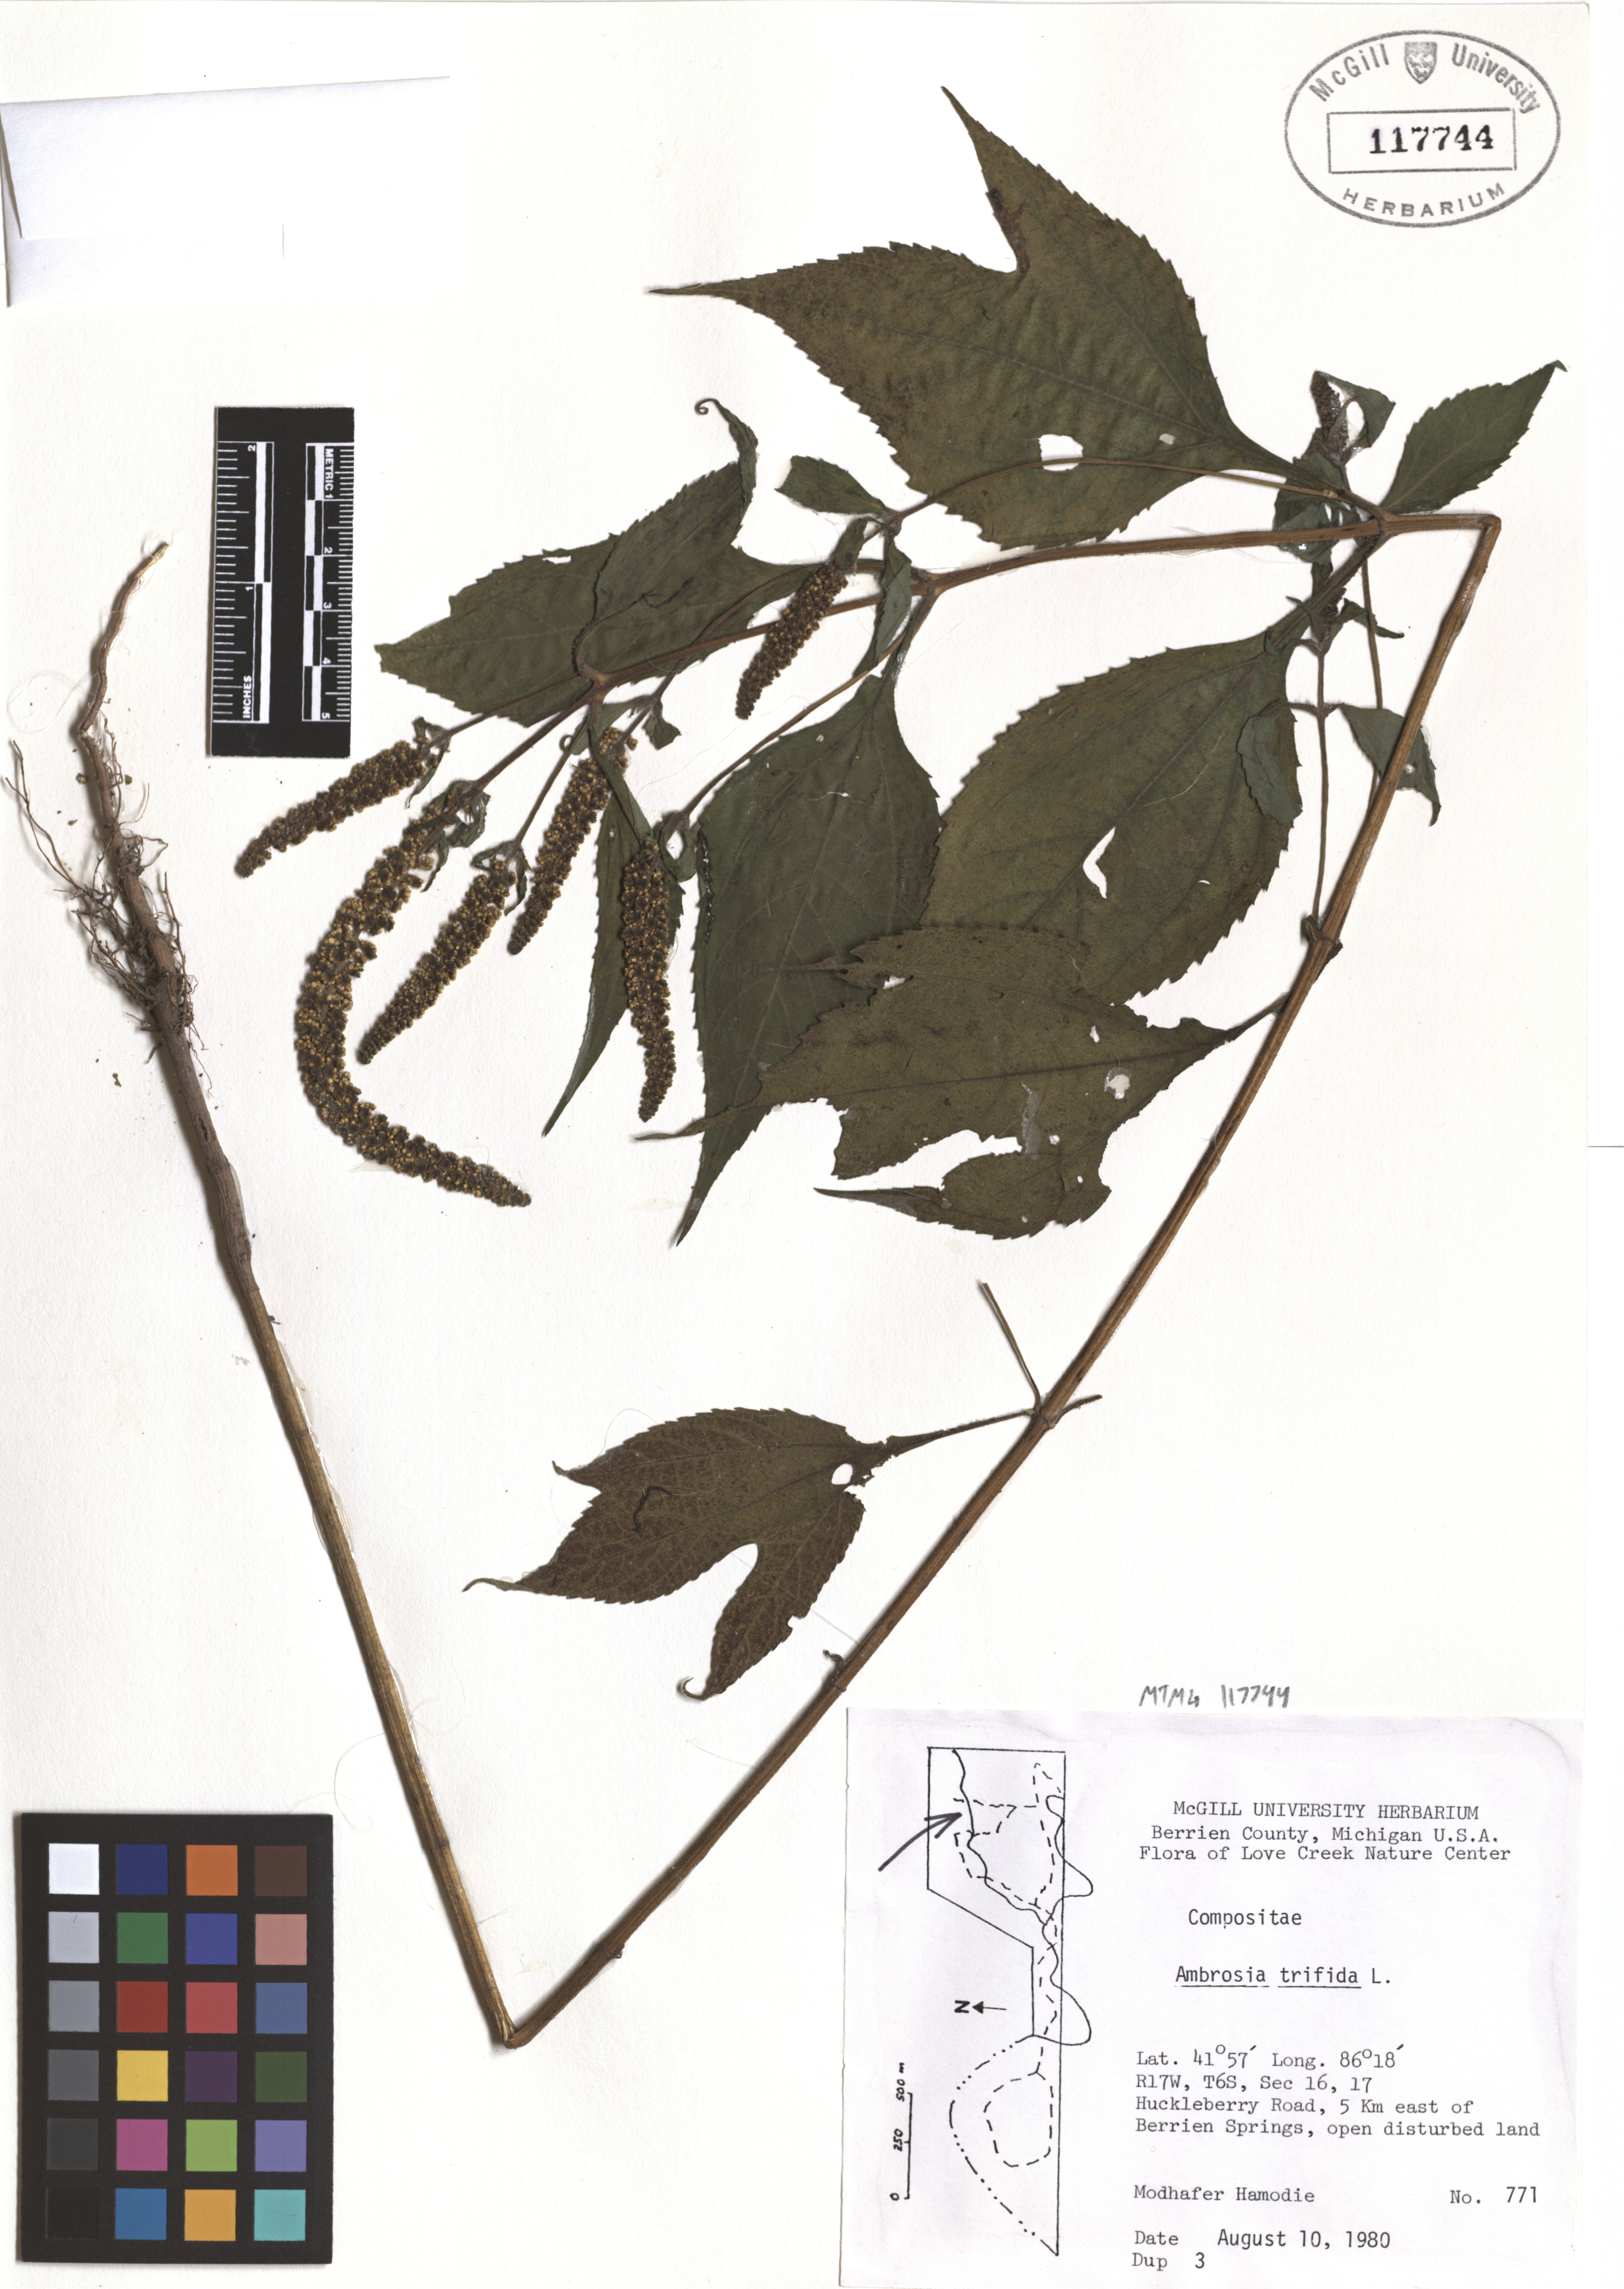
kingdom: Plantae
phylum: Tracheophyta
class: Magnoliopsida
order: Asterales
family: Asteraceae
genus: Ambrosia
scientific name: Ambrosia trifida
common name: Giant ragweed
